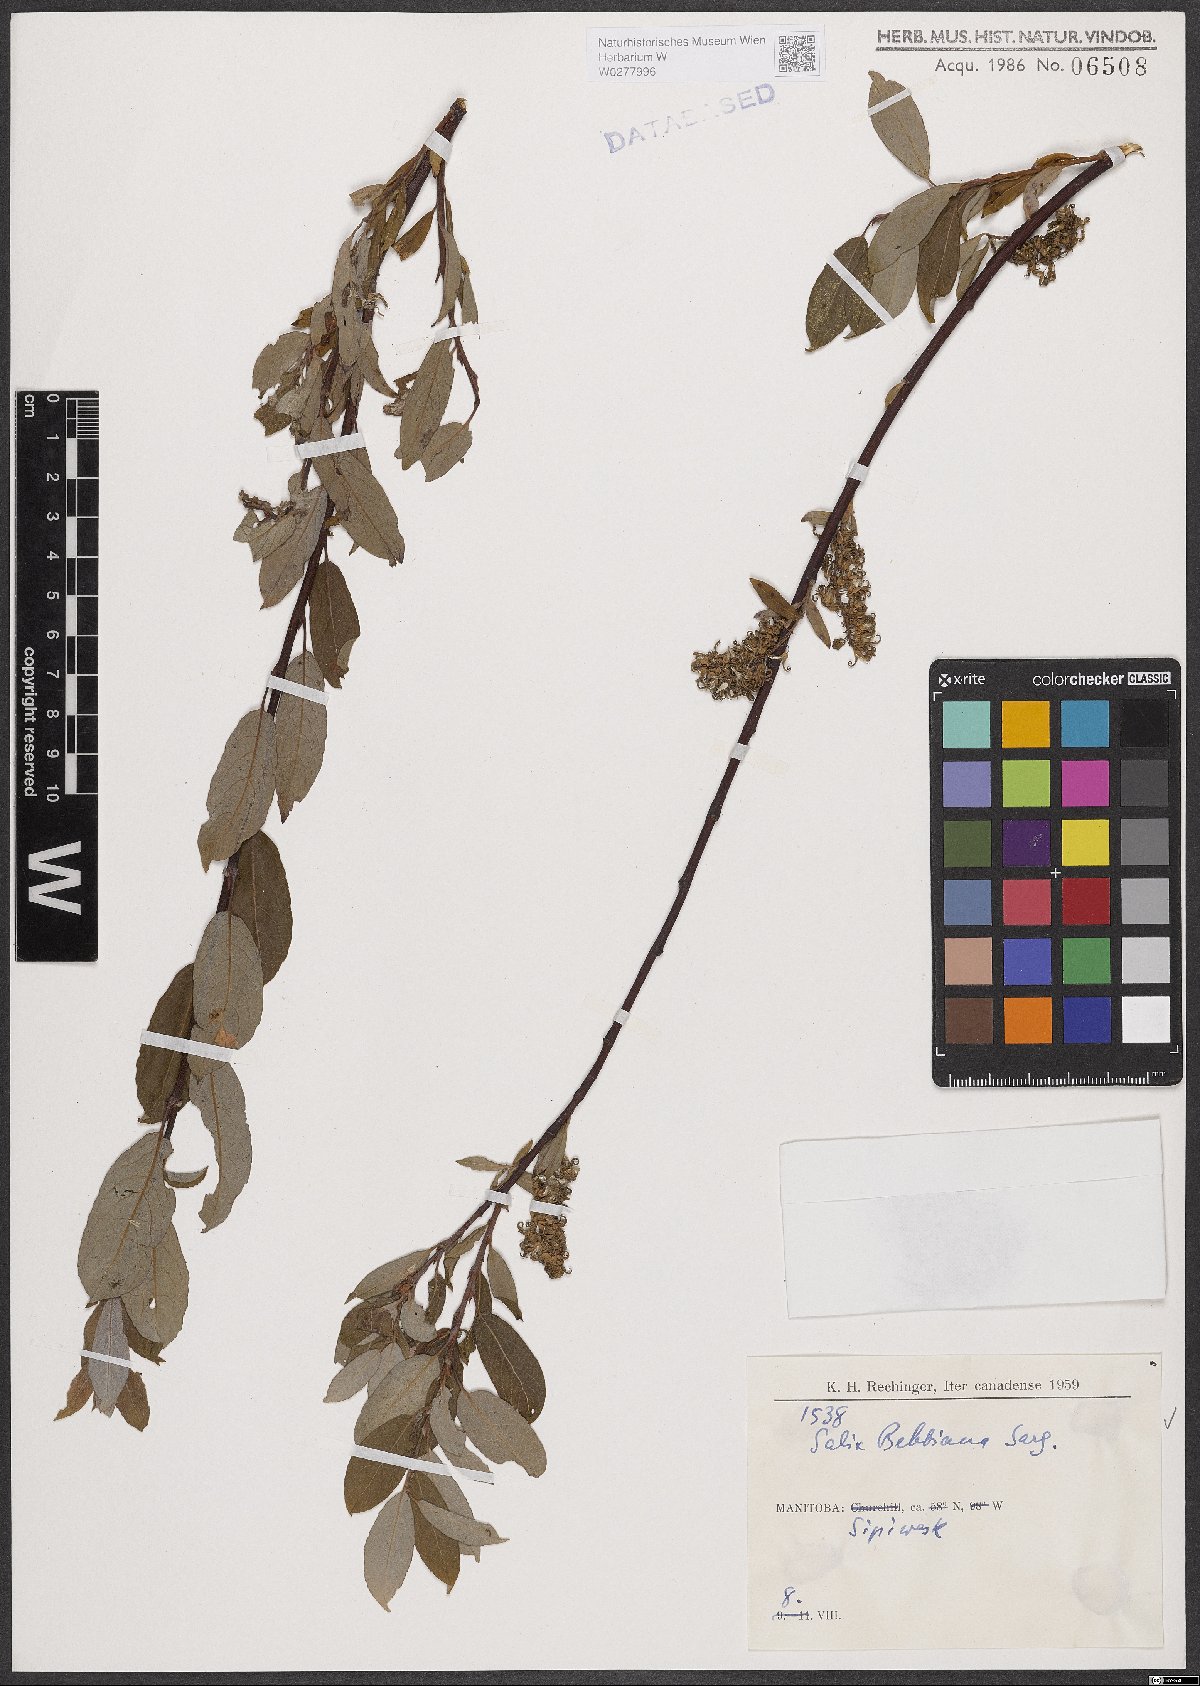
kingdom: Plantae
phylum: Tracheophyta
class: Magnoliopsida
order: Malpighiales
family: Salicaceae
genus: Salix
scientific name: Salix bebbiana
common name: Bebb's willow
